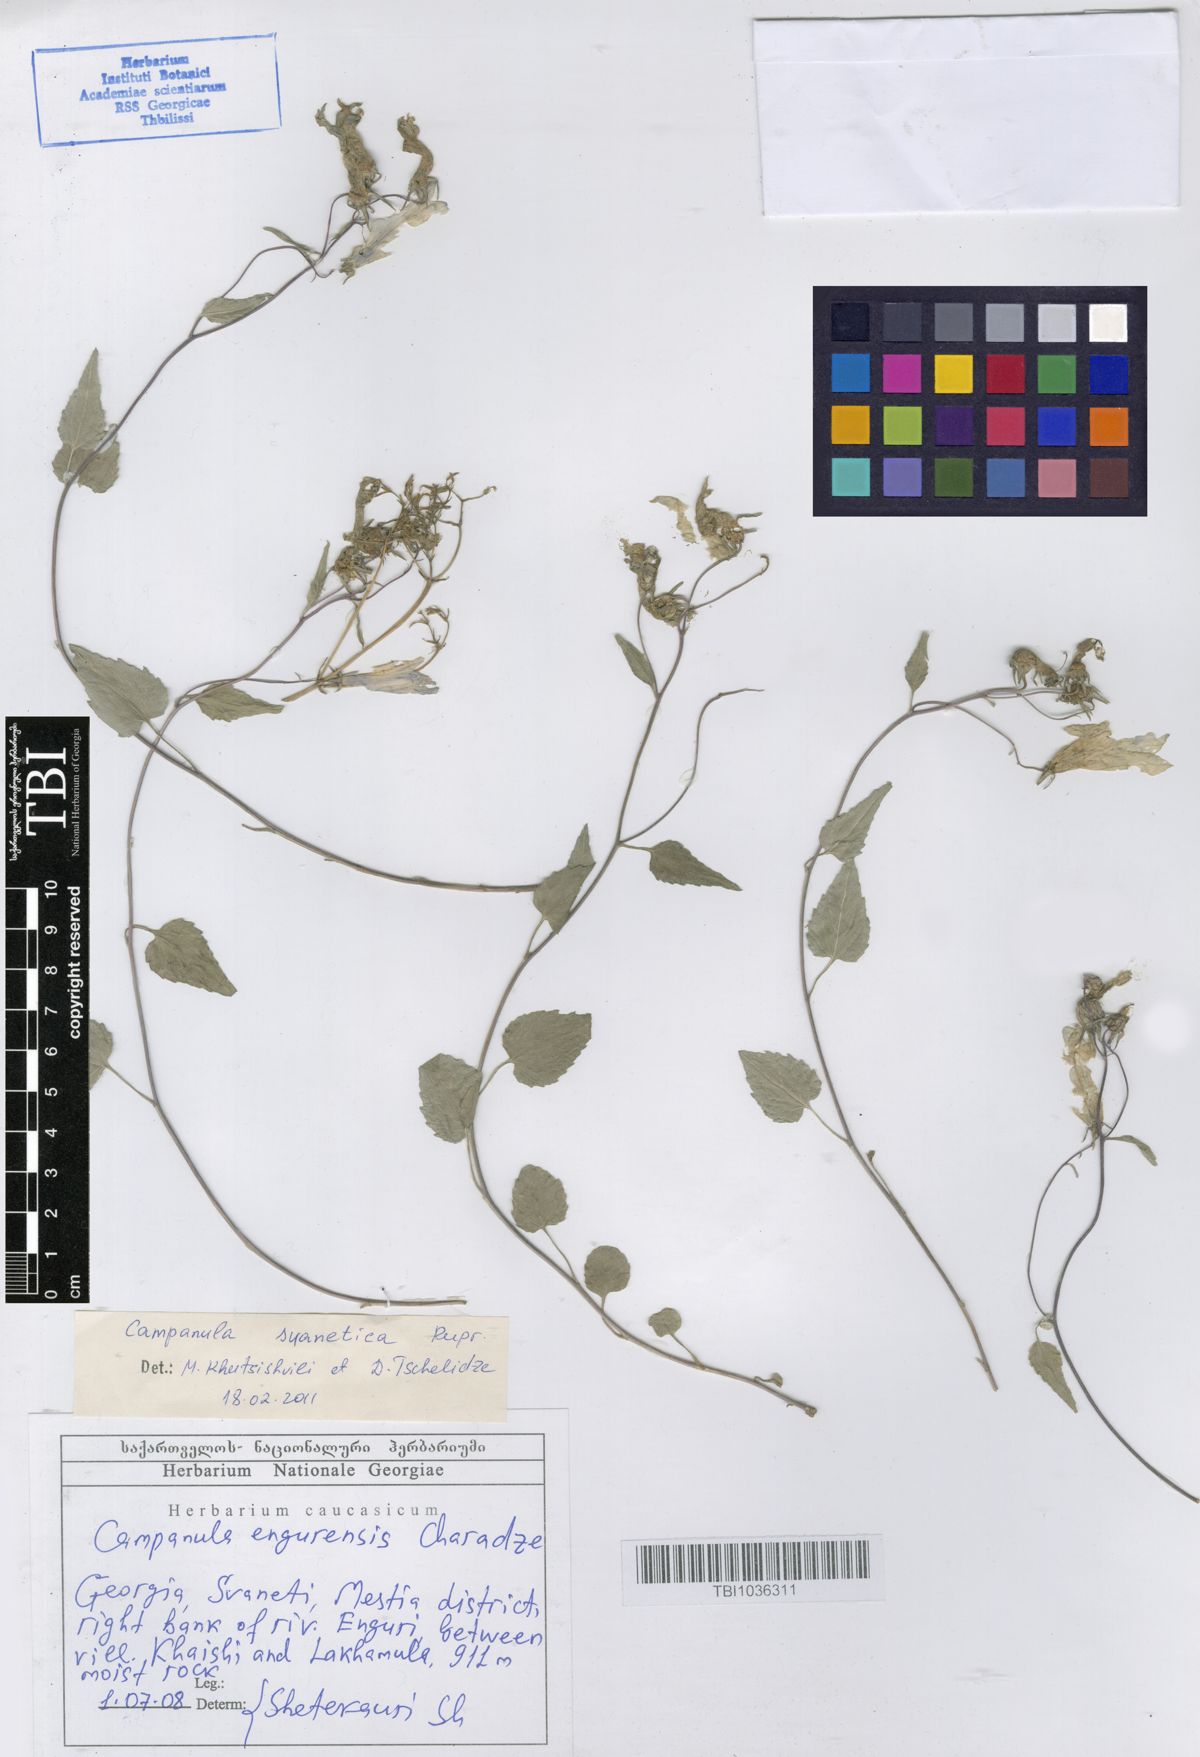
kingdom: Plantae
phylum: Tracheophyta
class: Magnoliopsida
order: Asterales
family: Campanulaceae
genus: Campanula
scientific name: Campanula suanetica
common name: Svanetian bellflower
